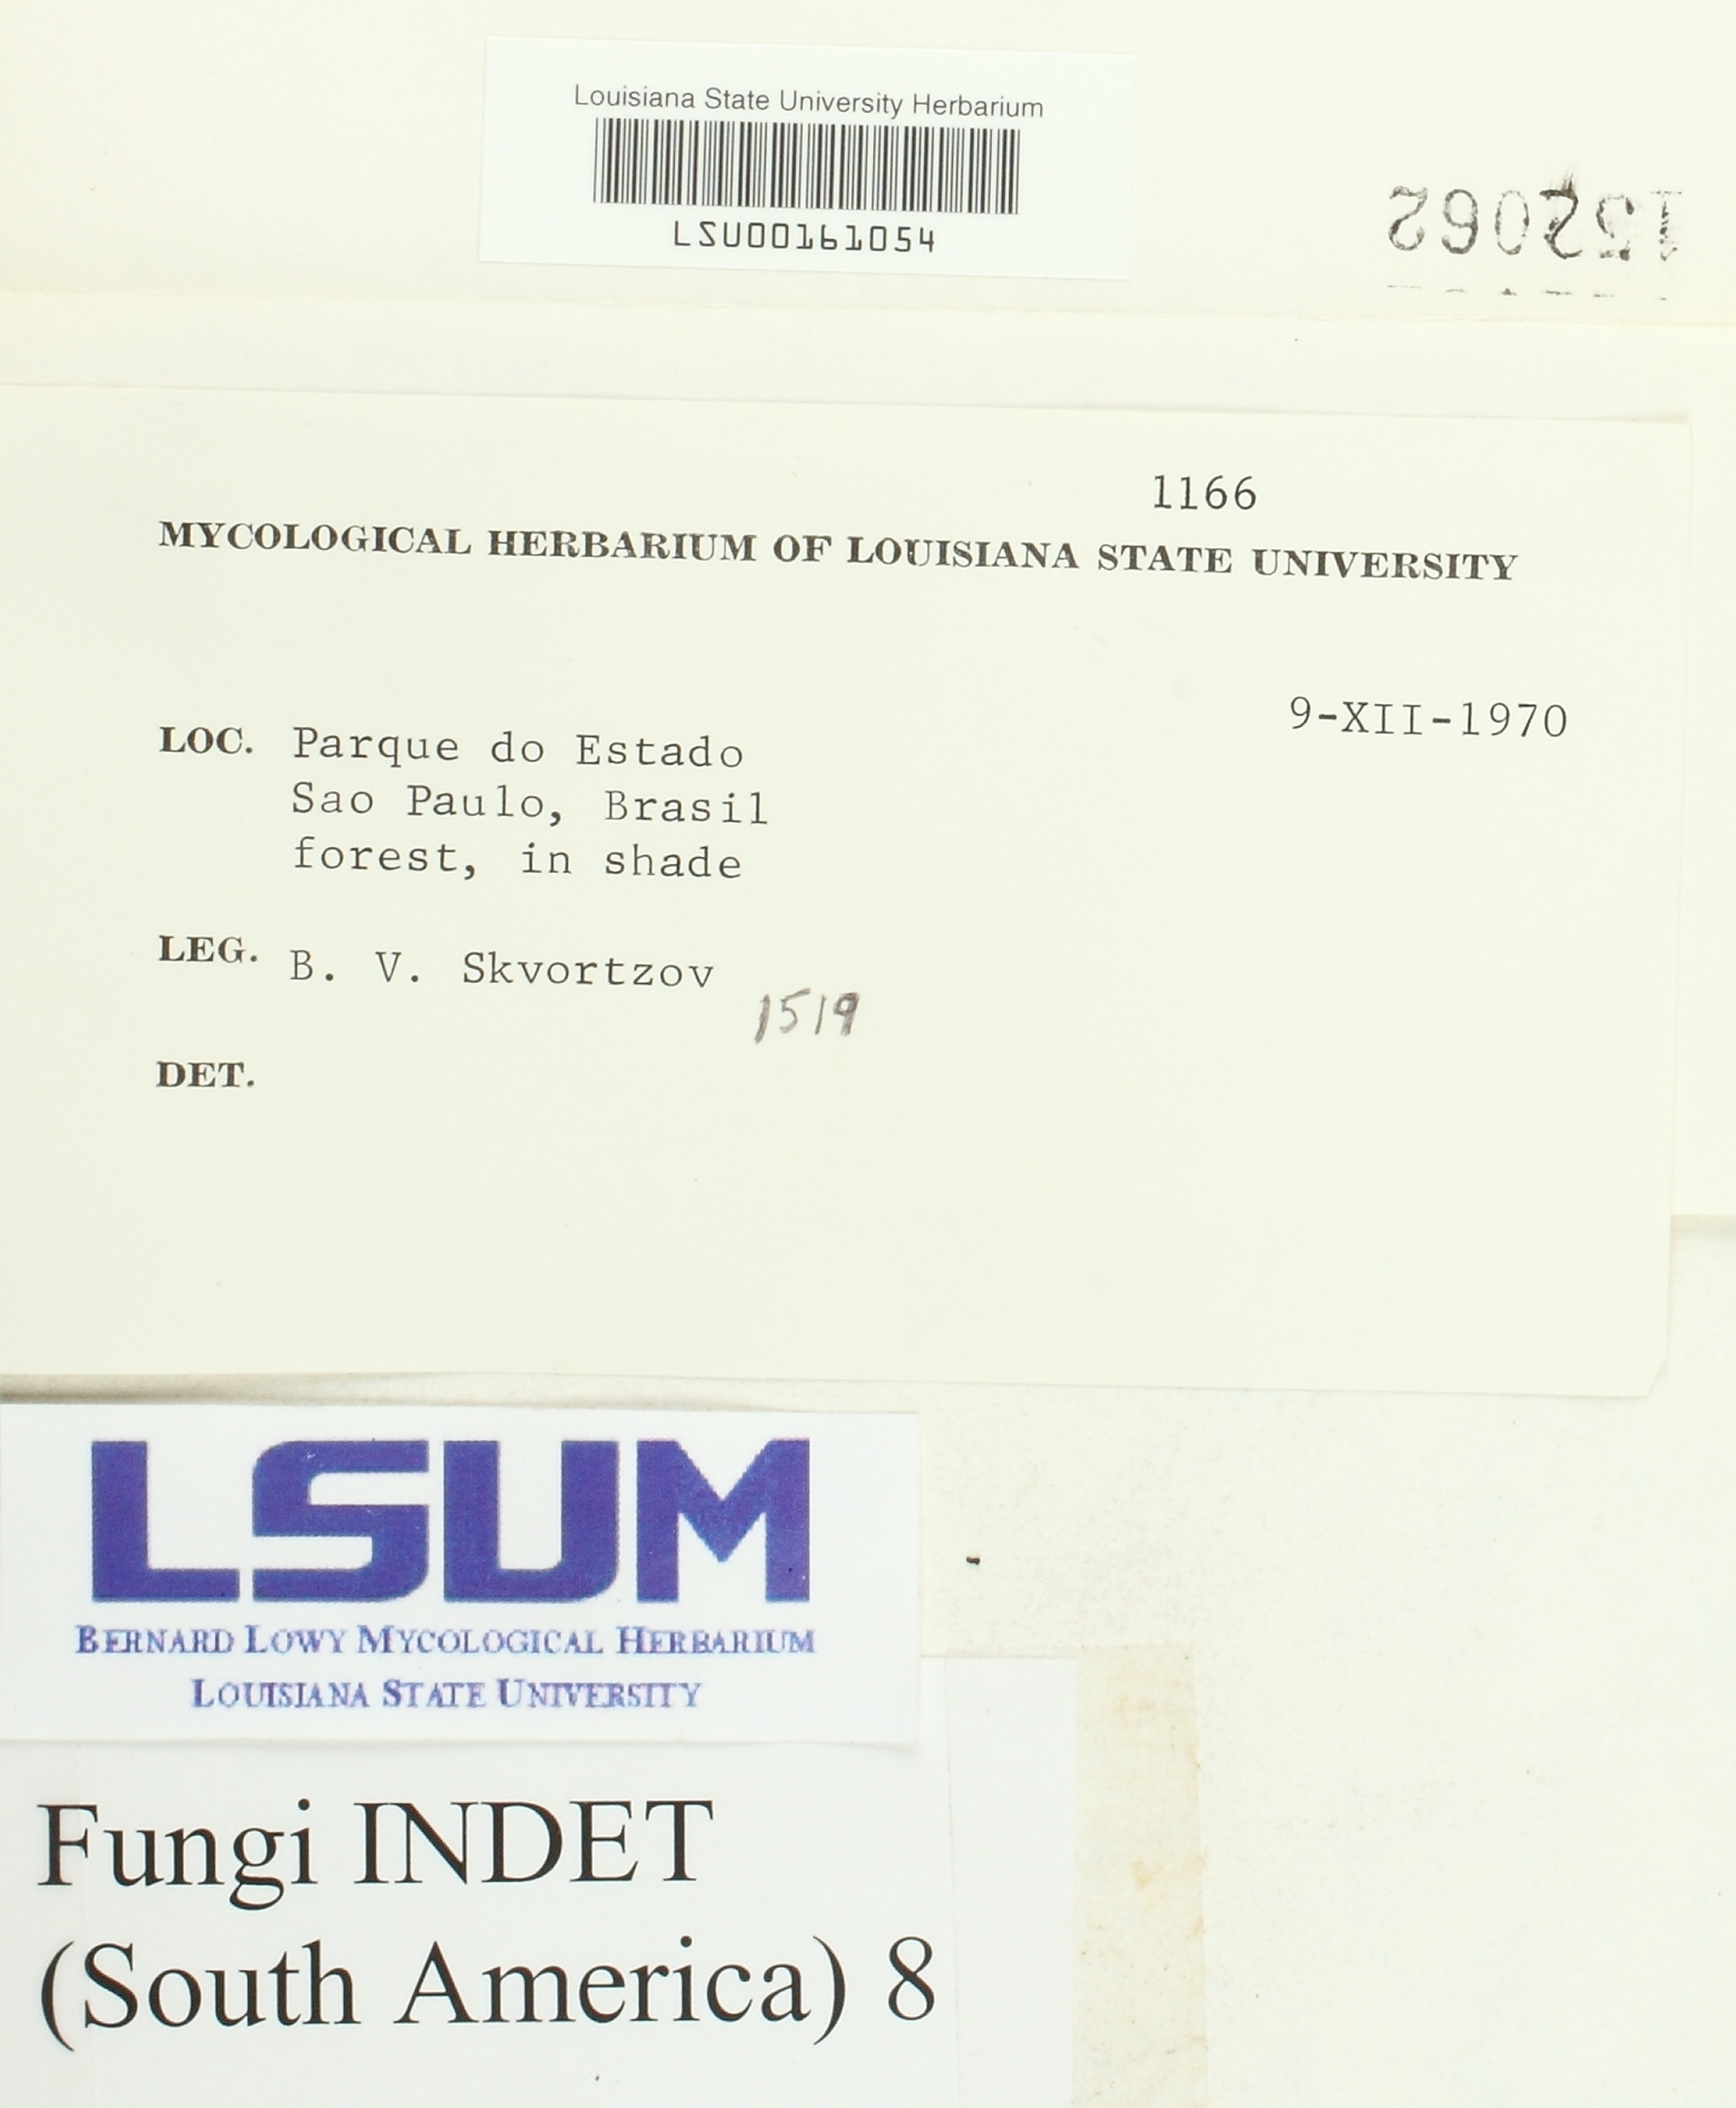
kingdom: Fungi
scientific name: Fungi
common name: Fungi
